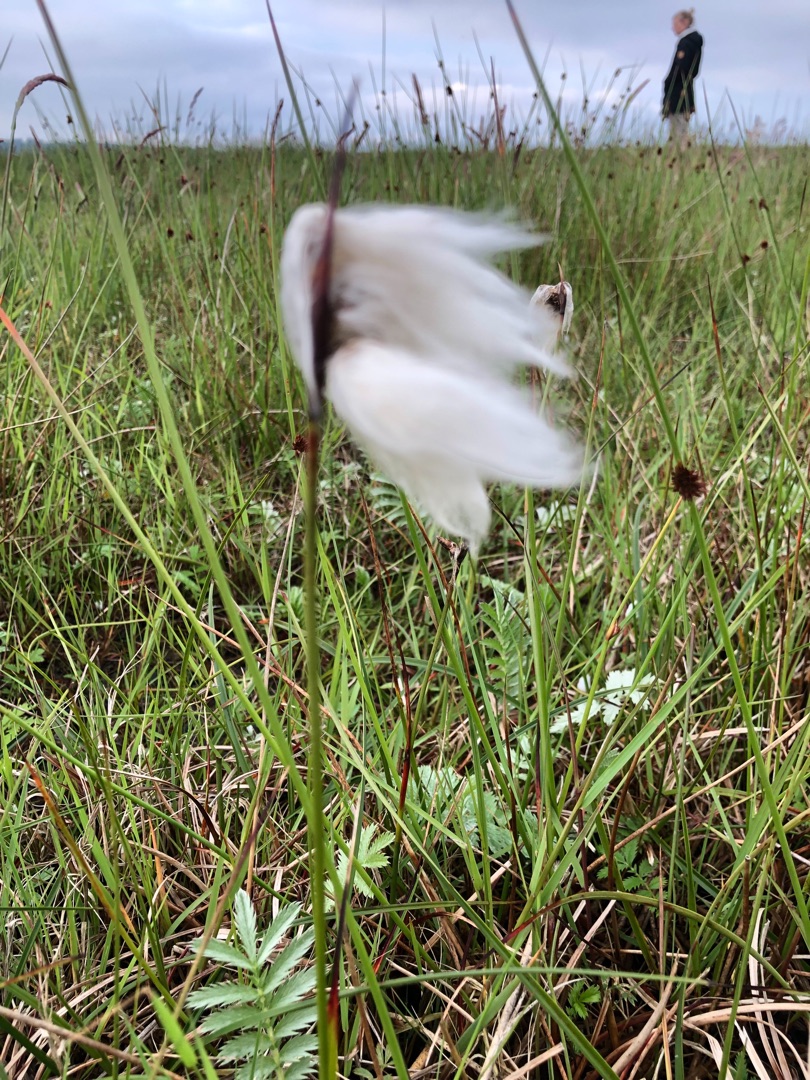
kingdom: Plantae
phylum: Tracheophyta
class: Liliopsida
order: Poales
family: Cyperaceae
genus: Eriophorum
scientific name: Eriophorum angustifolium
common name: Smalbladet kæruld
